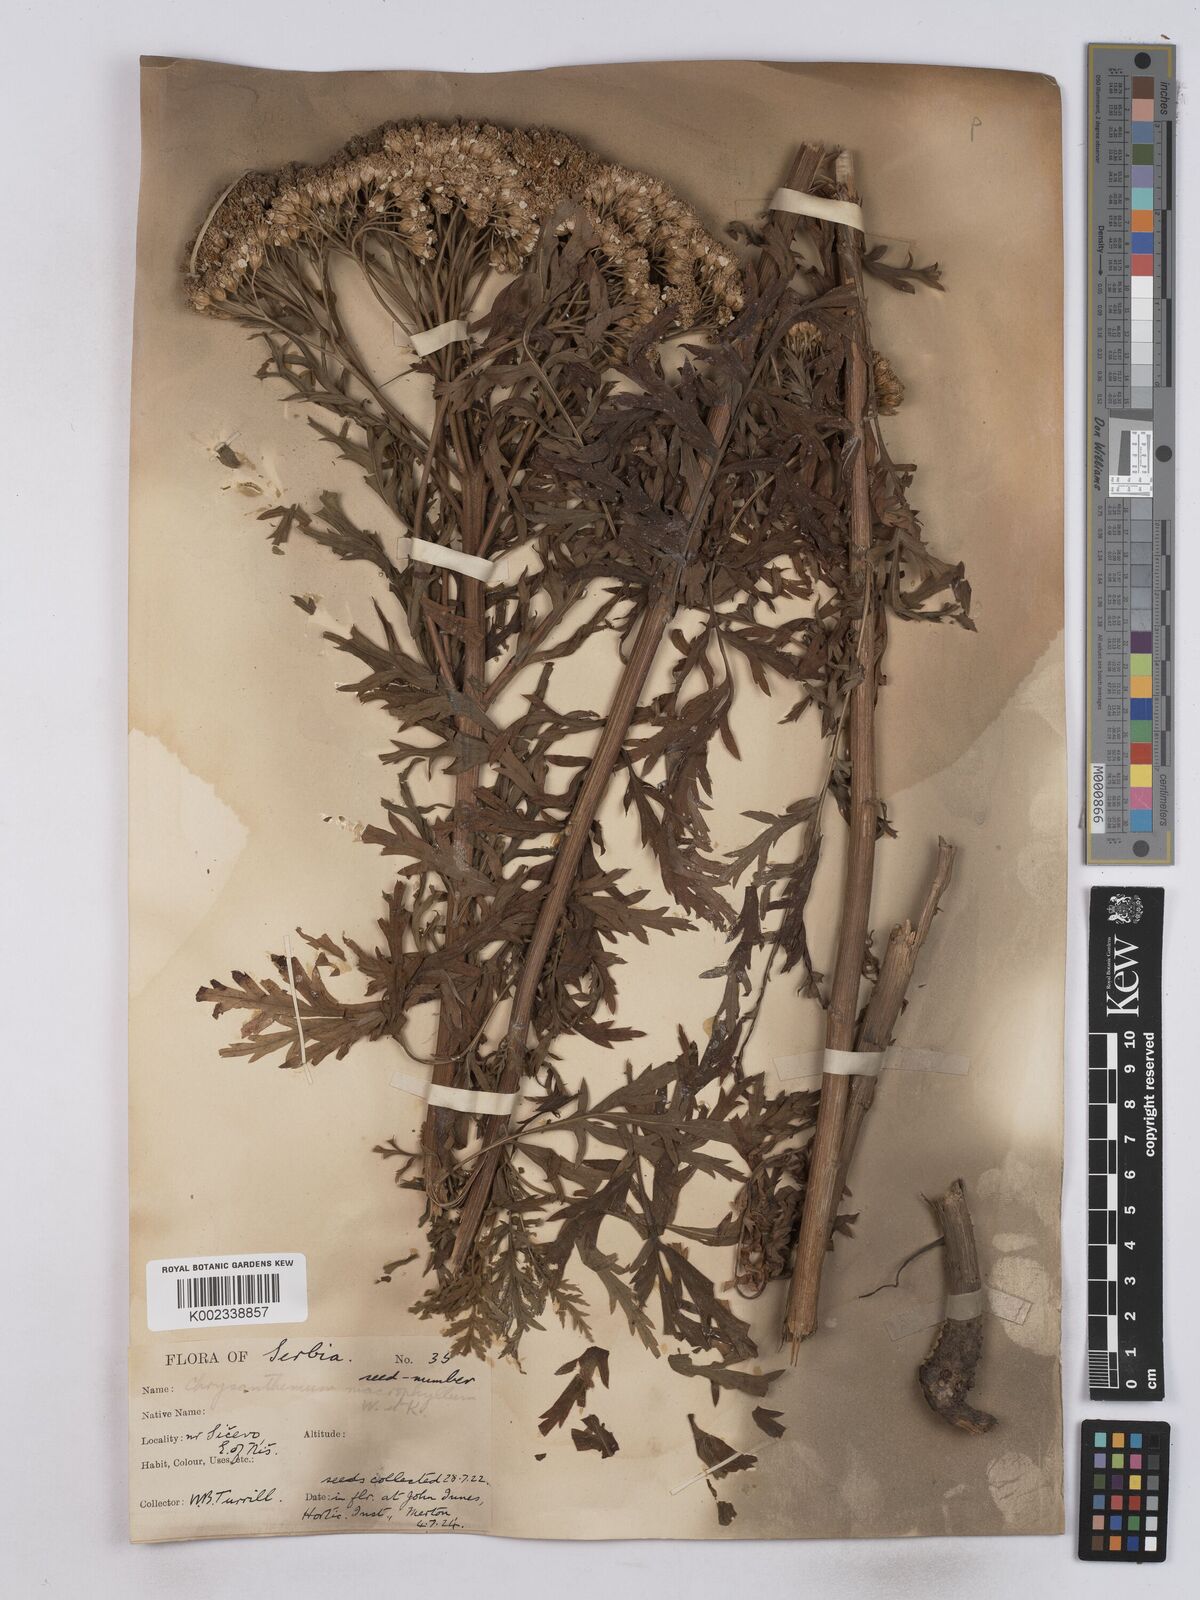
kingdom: Plantae
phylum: Tracheophyta
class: Magnoliopsida
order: Asterales
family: Asteraceae
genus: Tanacetum
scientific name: Tanacetum macrophyllum
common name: Rayed tansy
